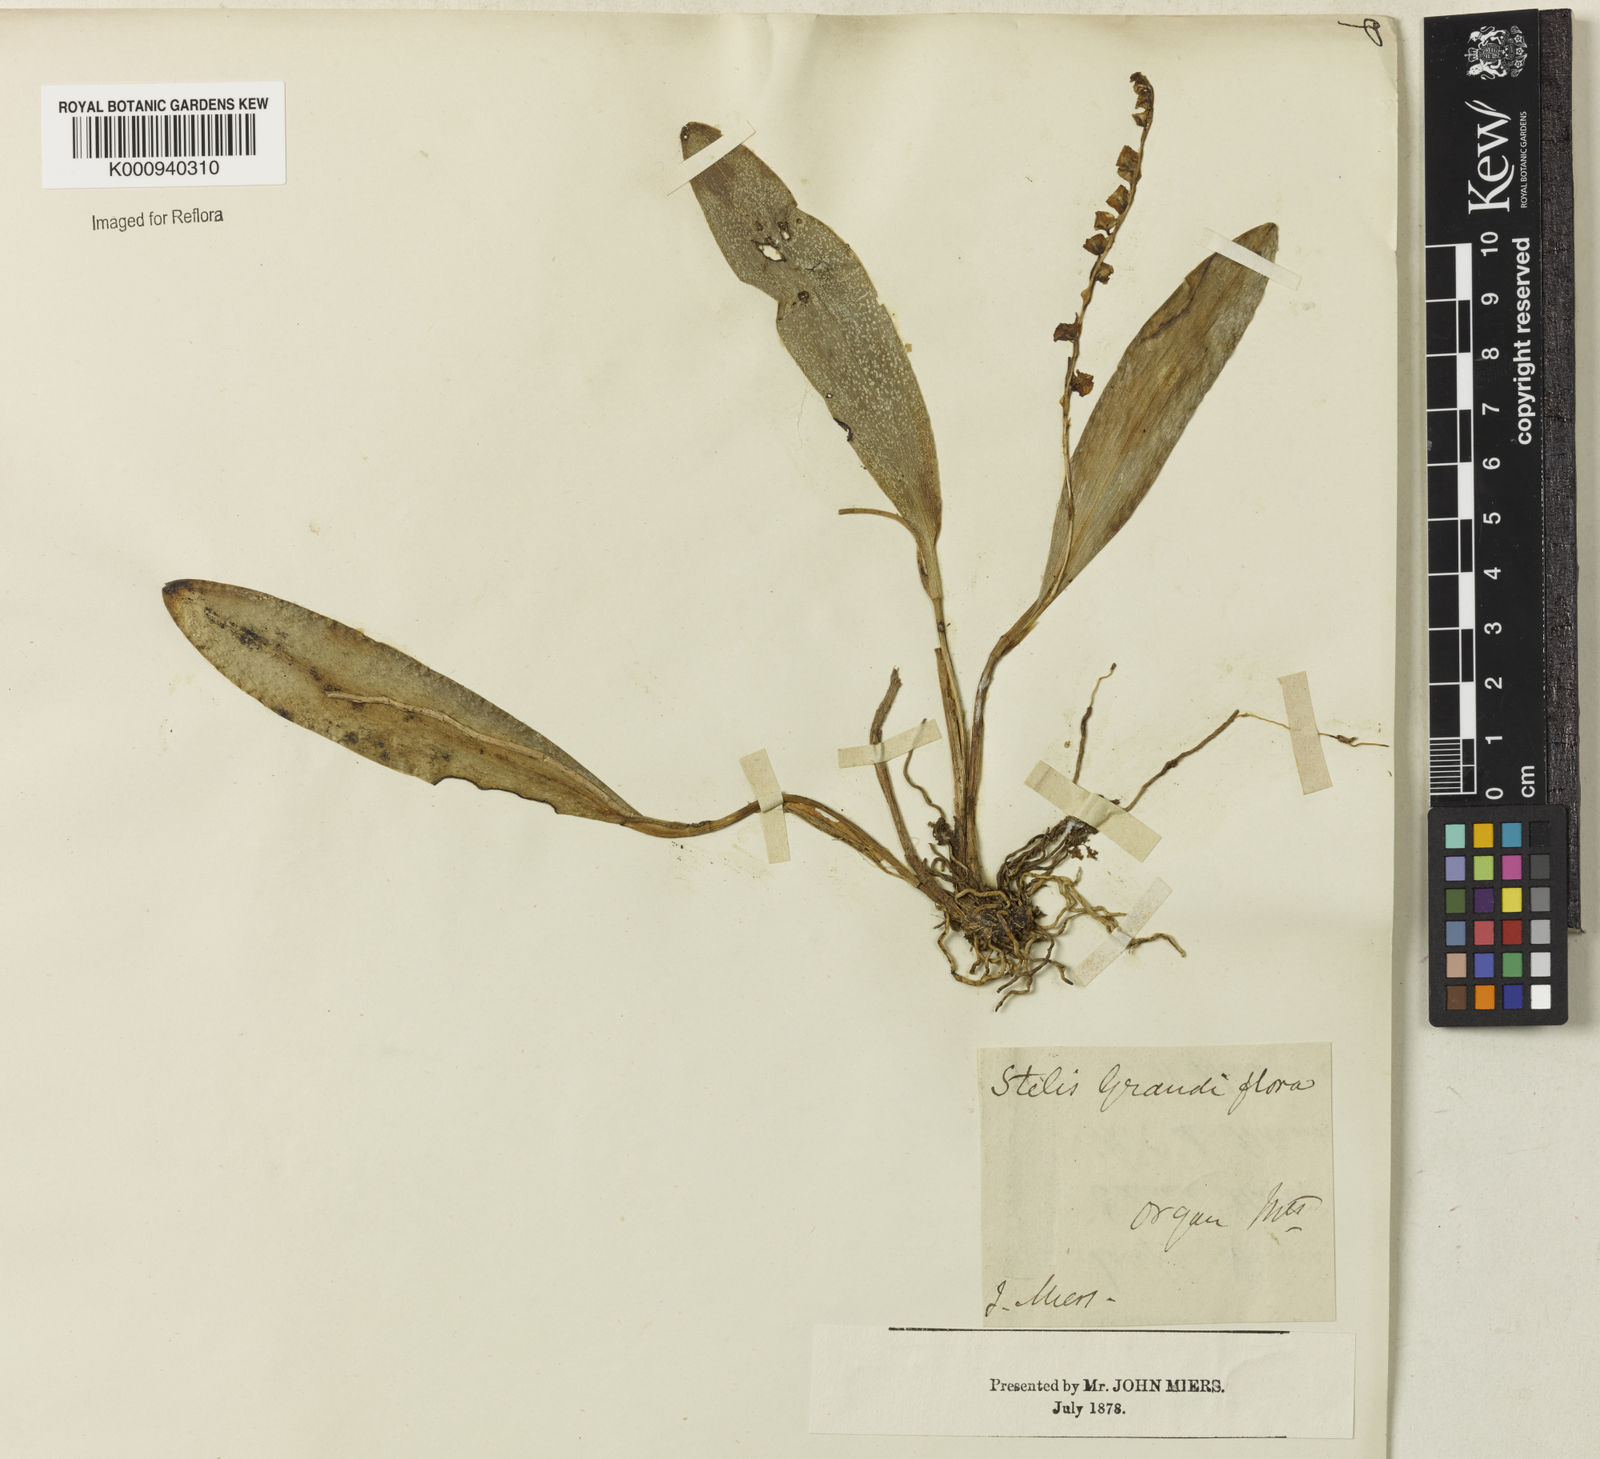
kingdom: Plantae
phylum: Tracheophyta
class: Liliopsida
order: Asparagales
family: Orchidaceae
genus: Stelis
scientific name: Stelis grandiflora
